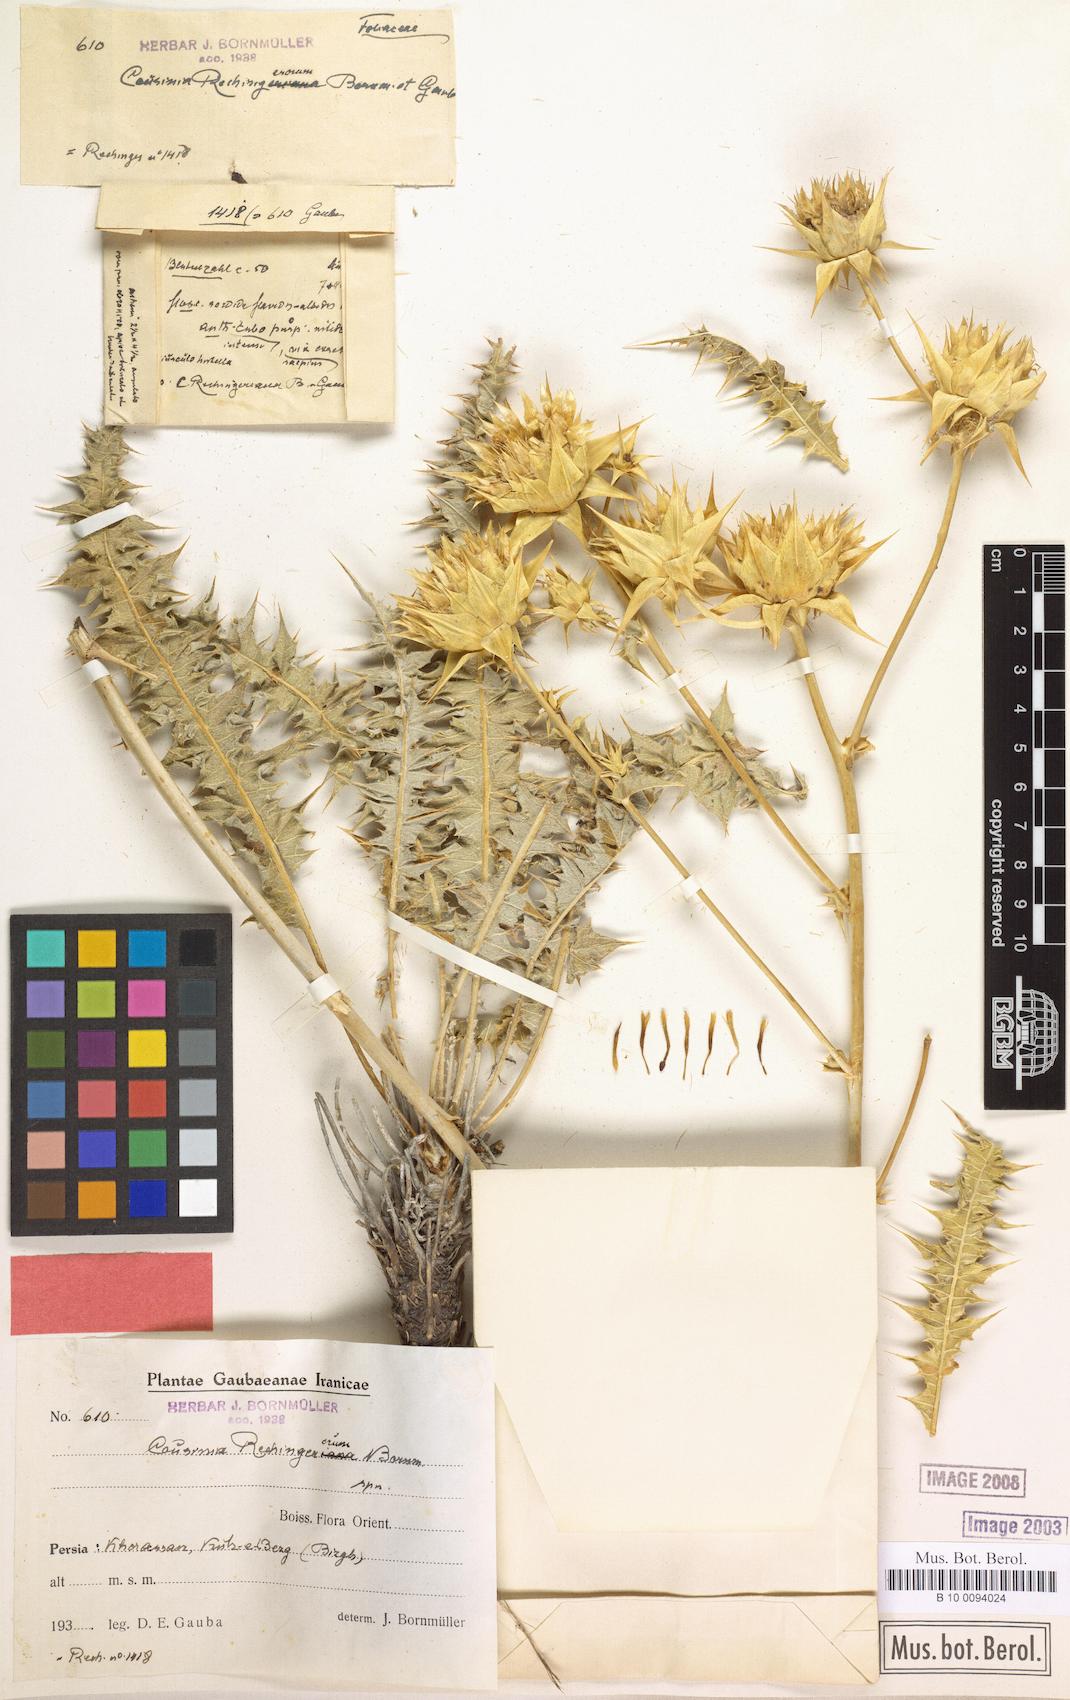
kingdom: Plantae
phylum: Tracheophyta
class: Magnoliopsida
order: Asterales
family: Asteraceae
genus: Cousinia
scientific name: Cousinia rechingerorum
